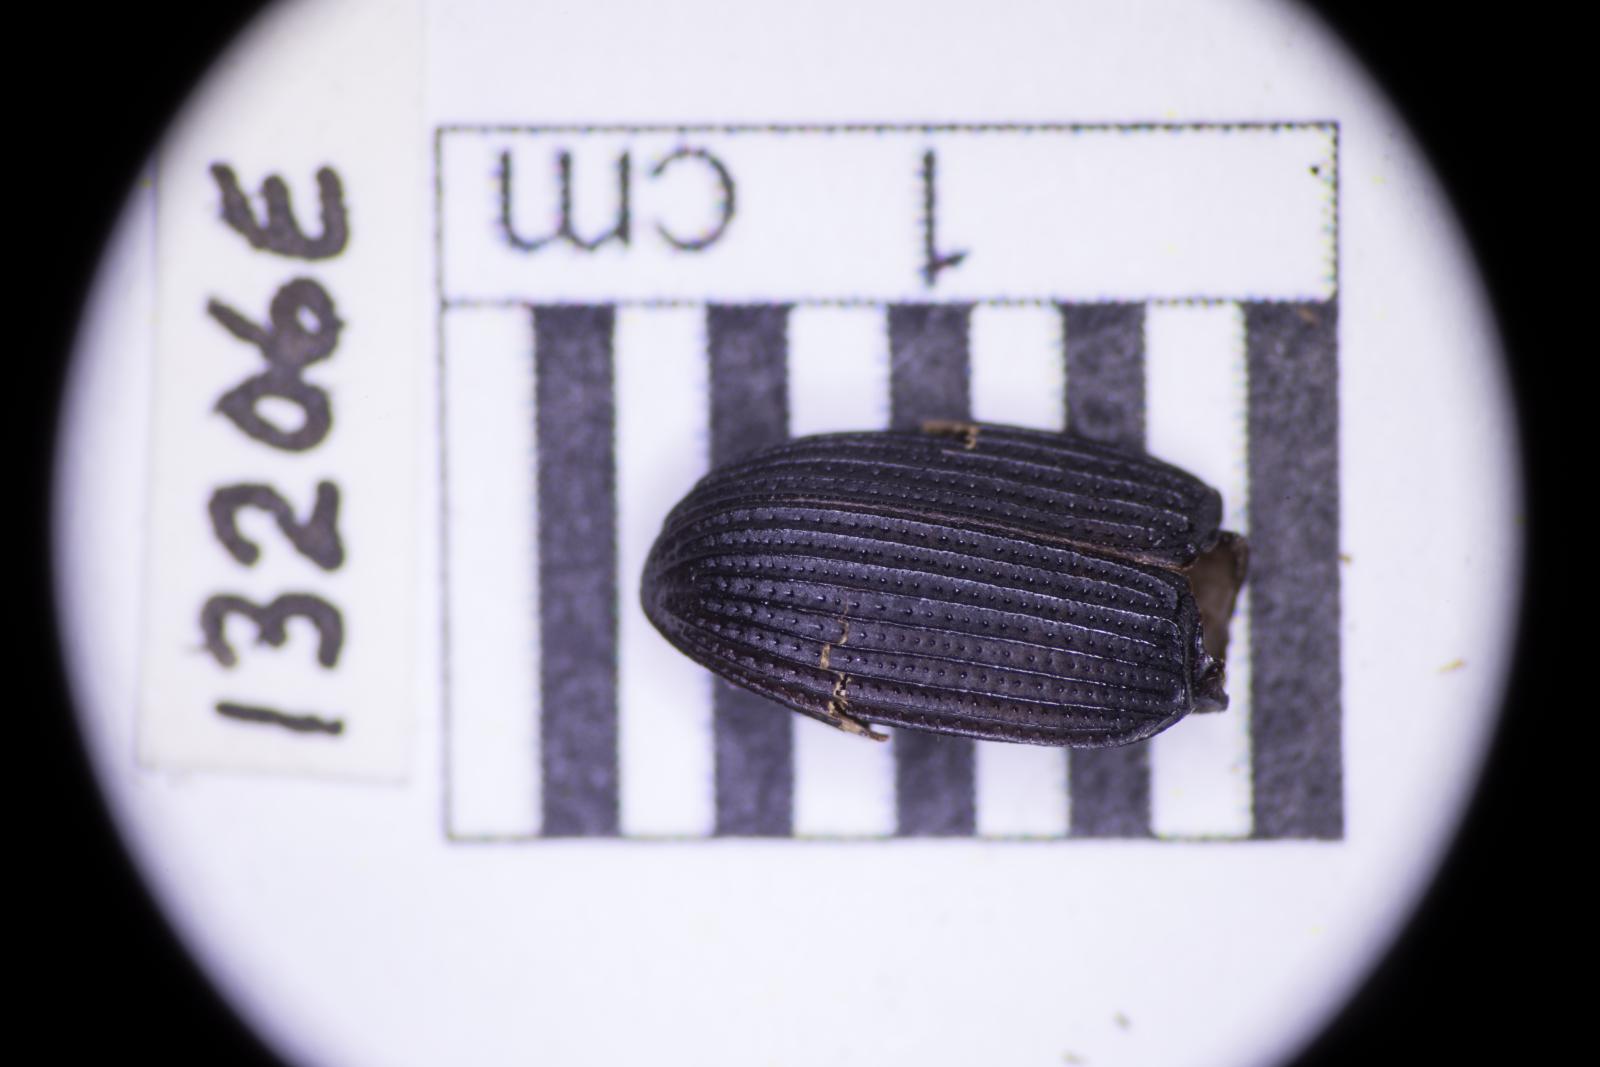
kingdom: Animalia
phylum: Arthropoda
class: Insecta
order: Coleoptera
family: Tenebrionidae
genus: Apsena
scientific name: Apsena laticornis
